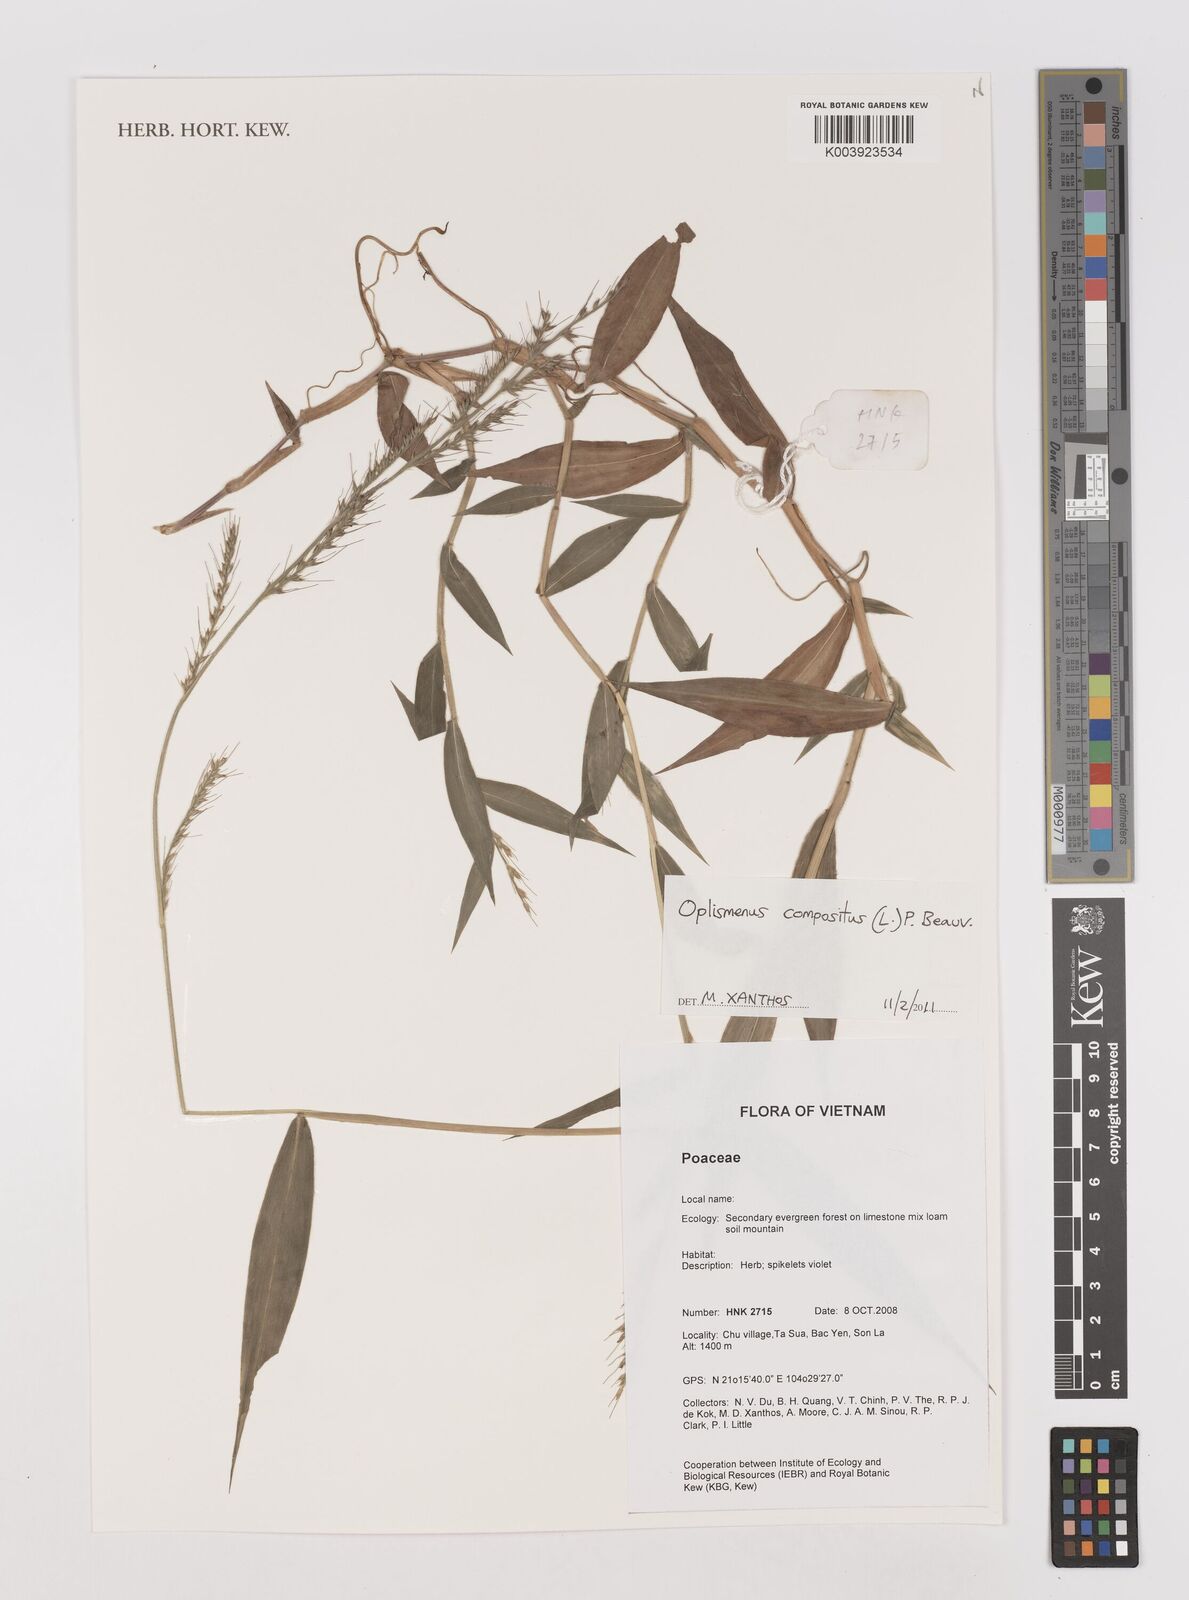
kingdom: Plantae
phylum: Tracheophyta
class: Liliopsida
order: Poales
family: Poaceae
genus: Oplismenus
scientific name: Oplismenus compositus
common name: Running mountain grass
